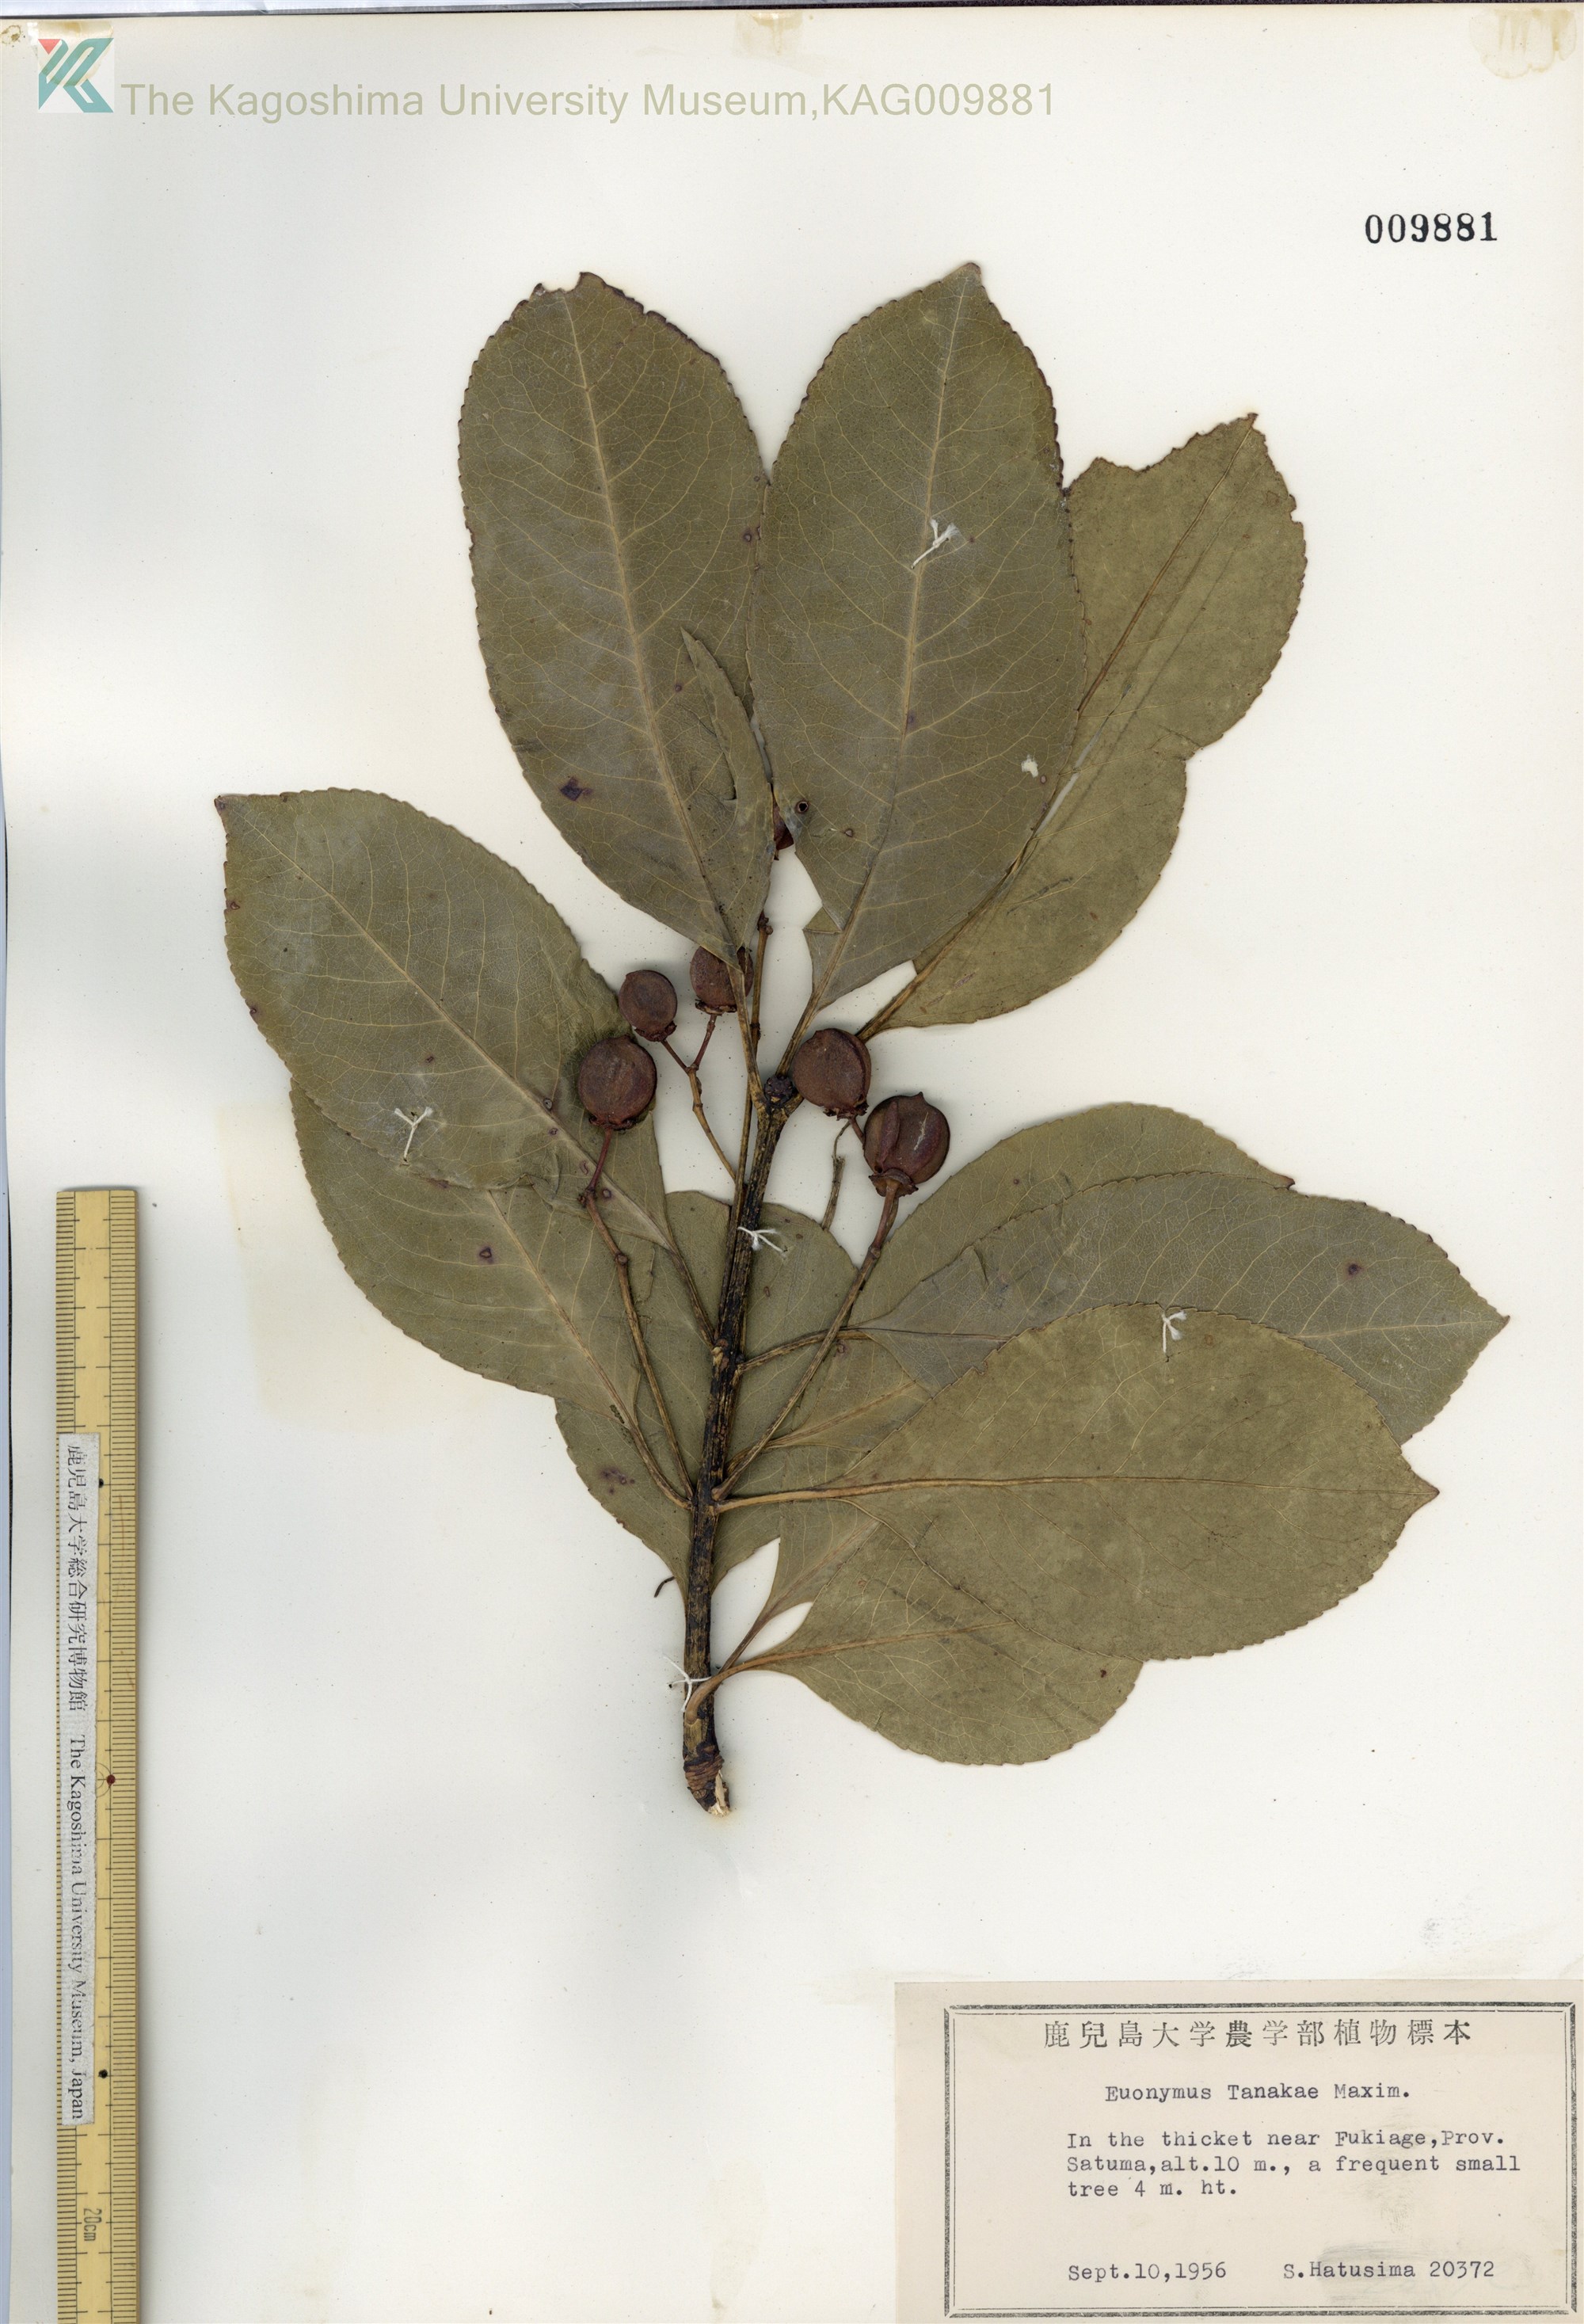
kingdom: Plantae
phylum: Tracheophyta
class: Magnoliopsida
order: Celastrales
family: Celastraceae
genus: Euonymus
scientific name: Euonymus carnosus
